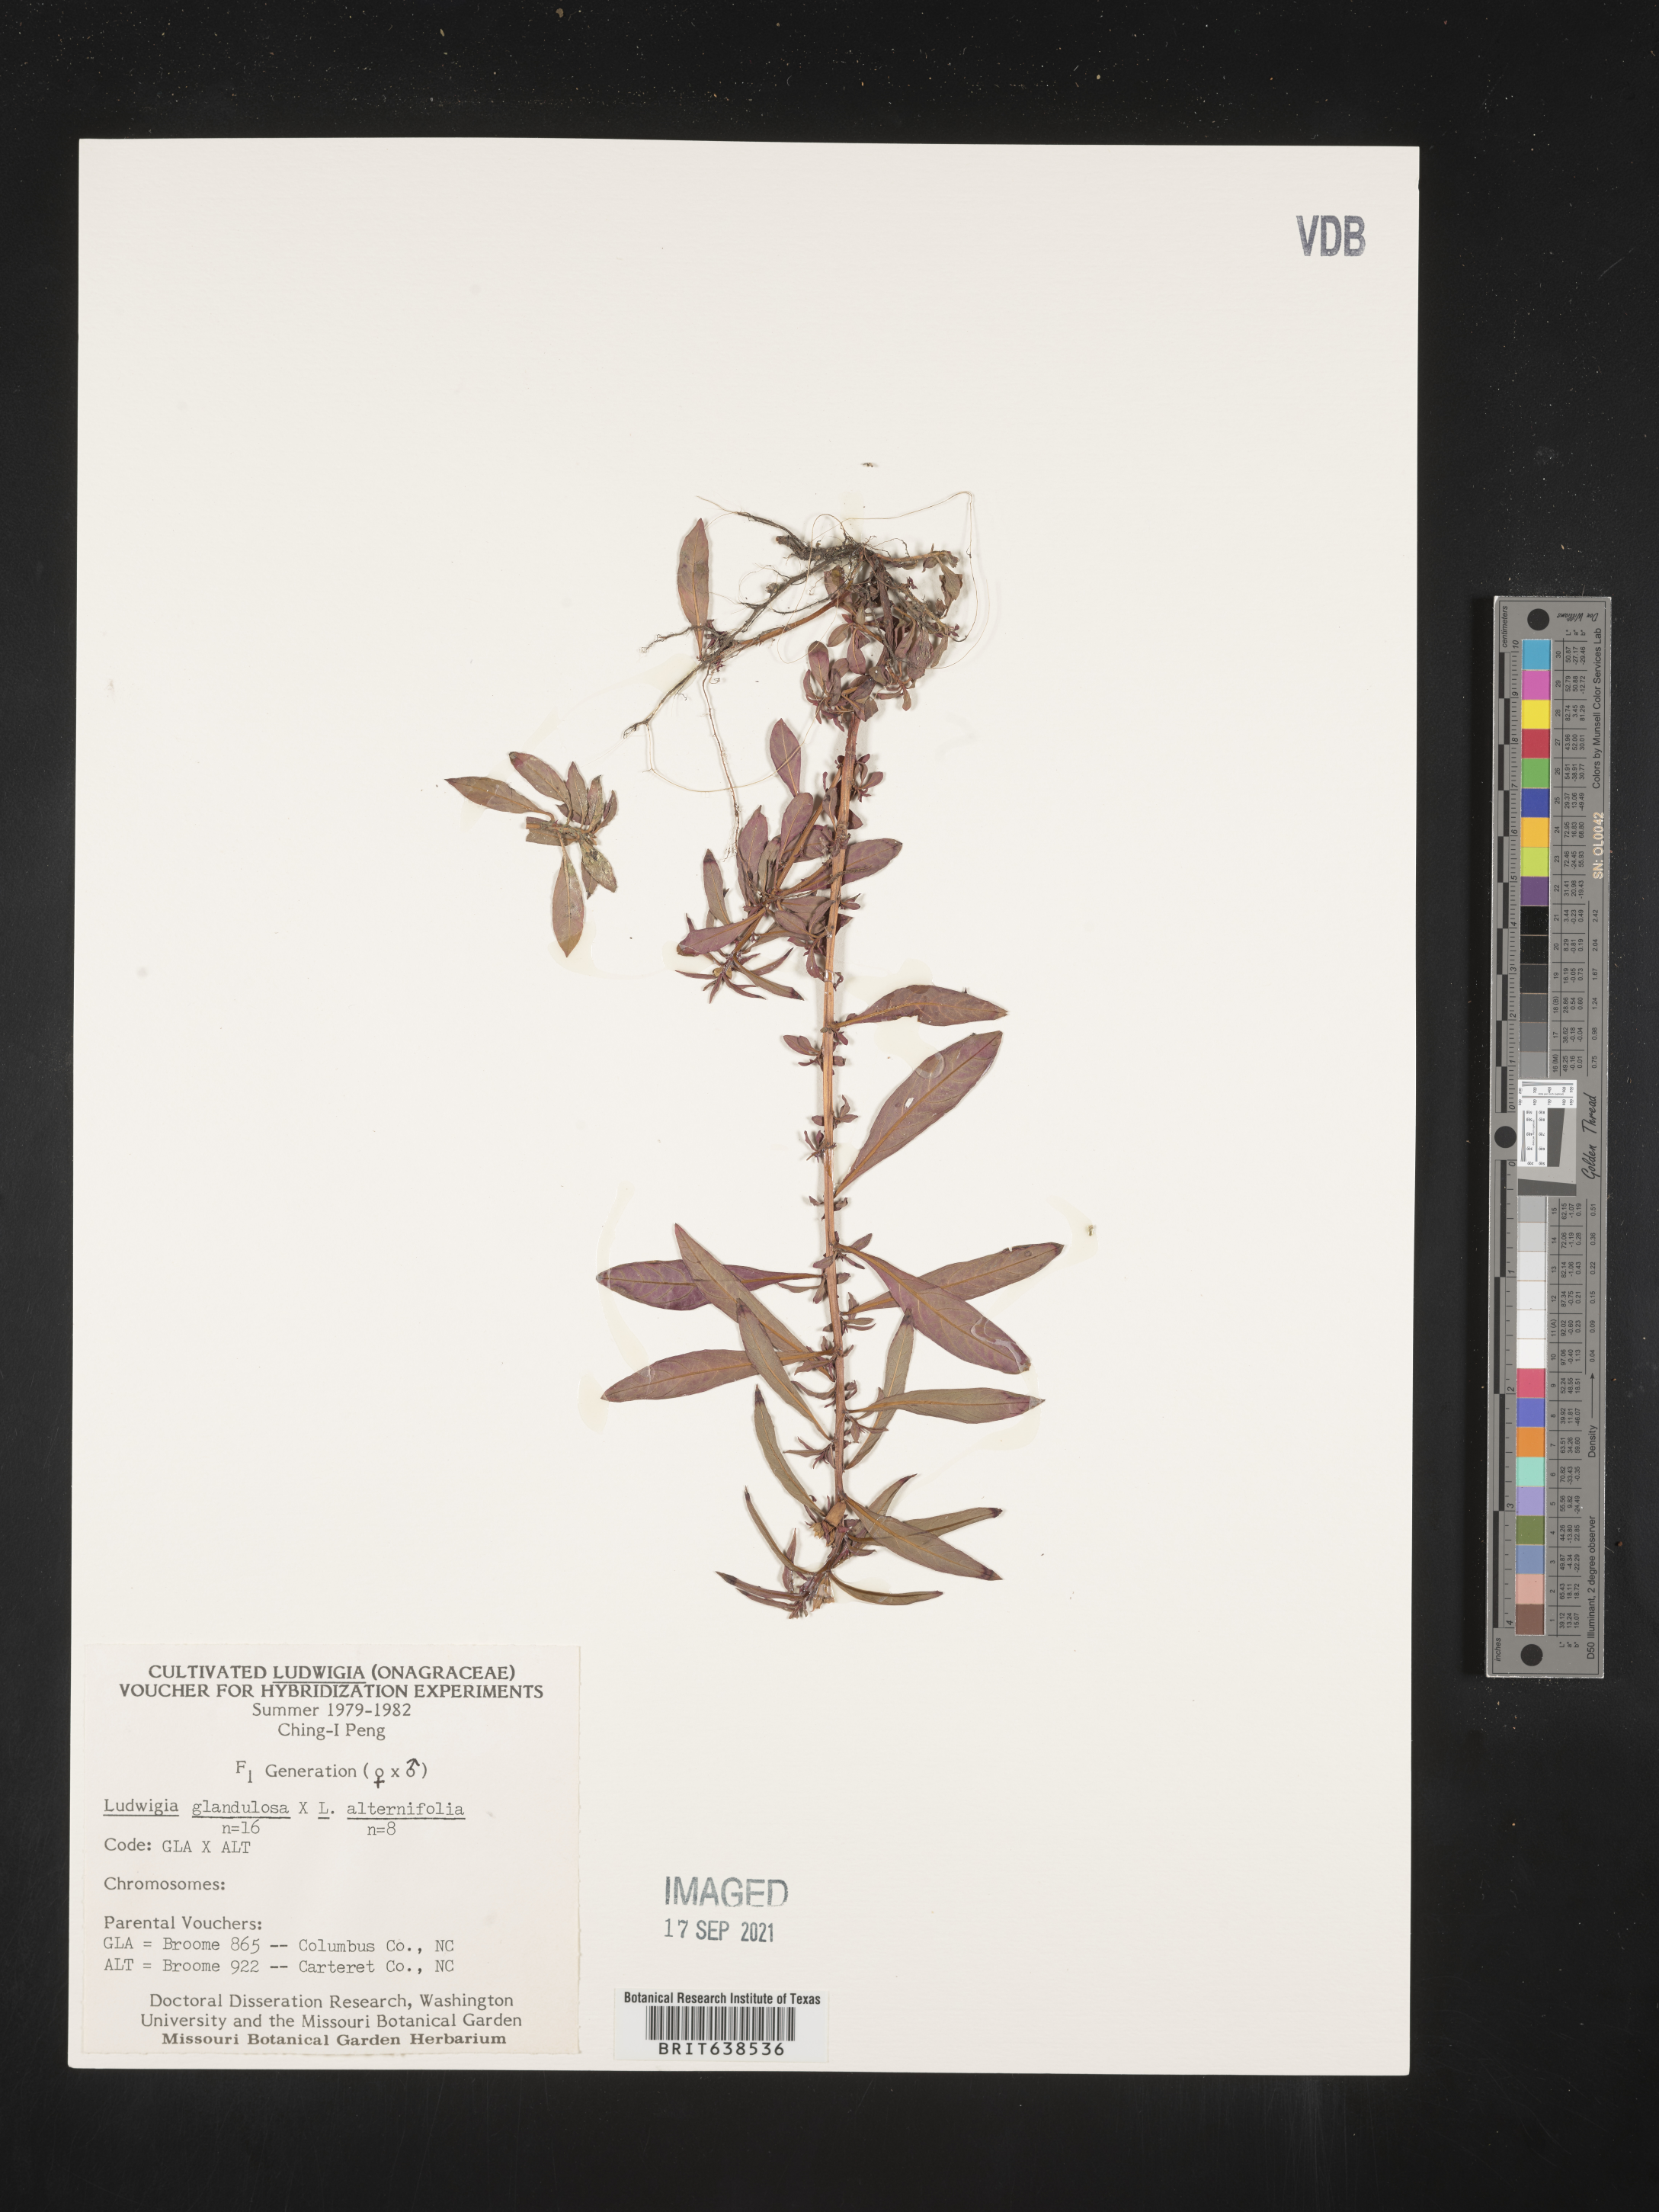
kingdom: Plantae
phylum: Tracheophyta
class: Magnoliopsida
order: Myrtales
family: Onagraceae
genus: Ludwigia
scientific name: Ludwigia
